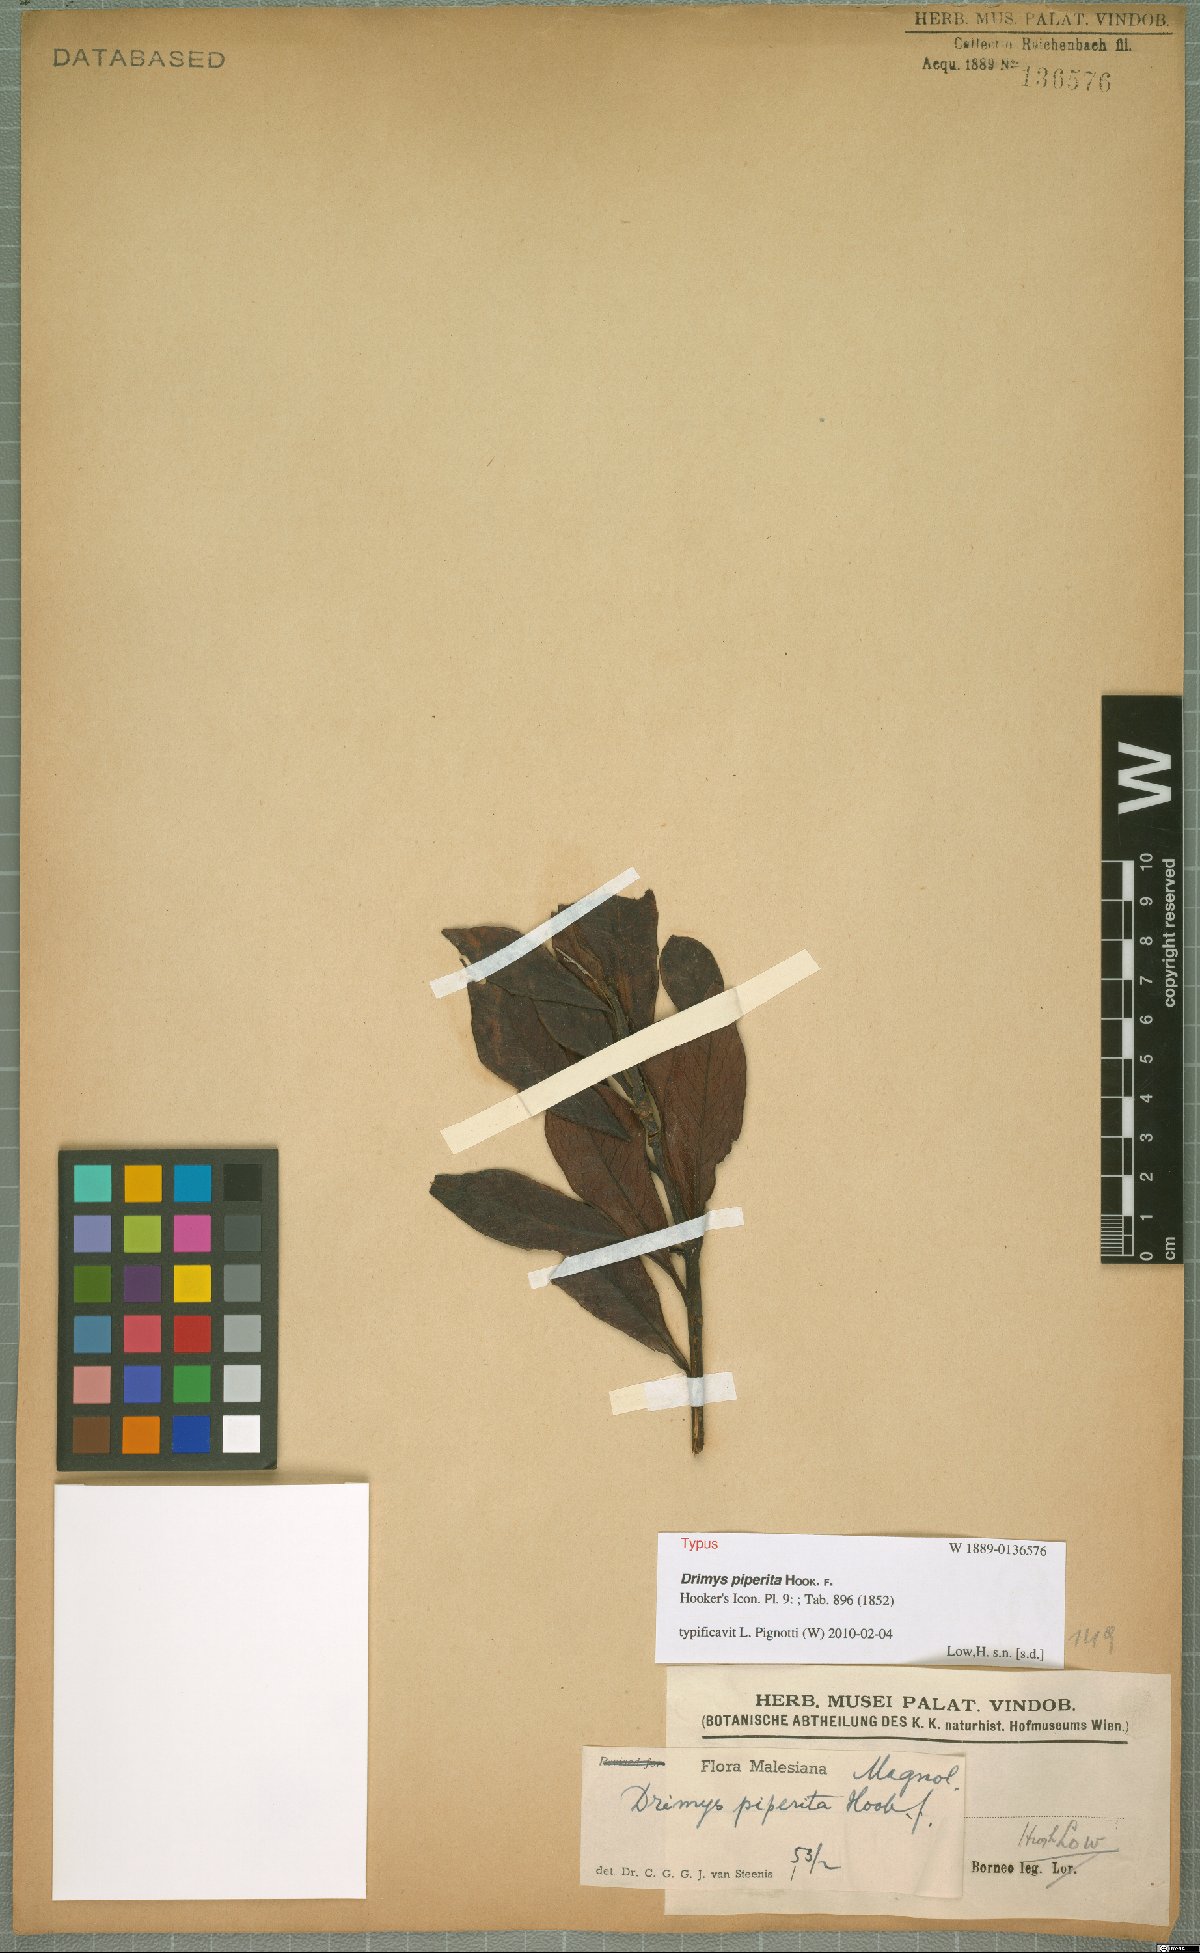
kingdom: Plantae
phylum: Tracheophyta
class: Magnoliopsida
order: Canellales
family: Winteraceae
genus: Drimys
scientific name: Drimys piperita
